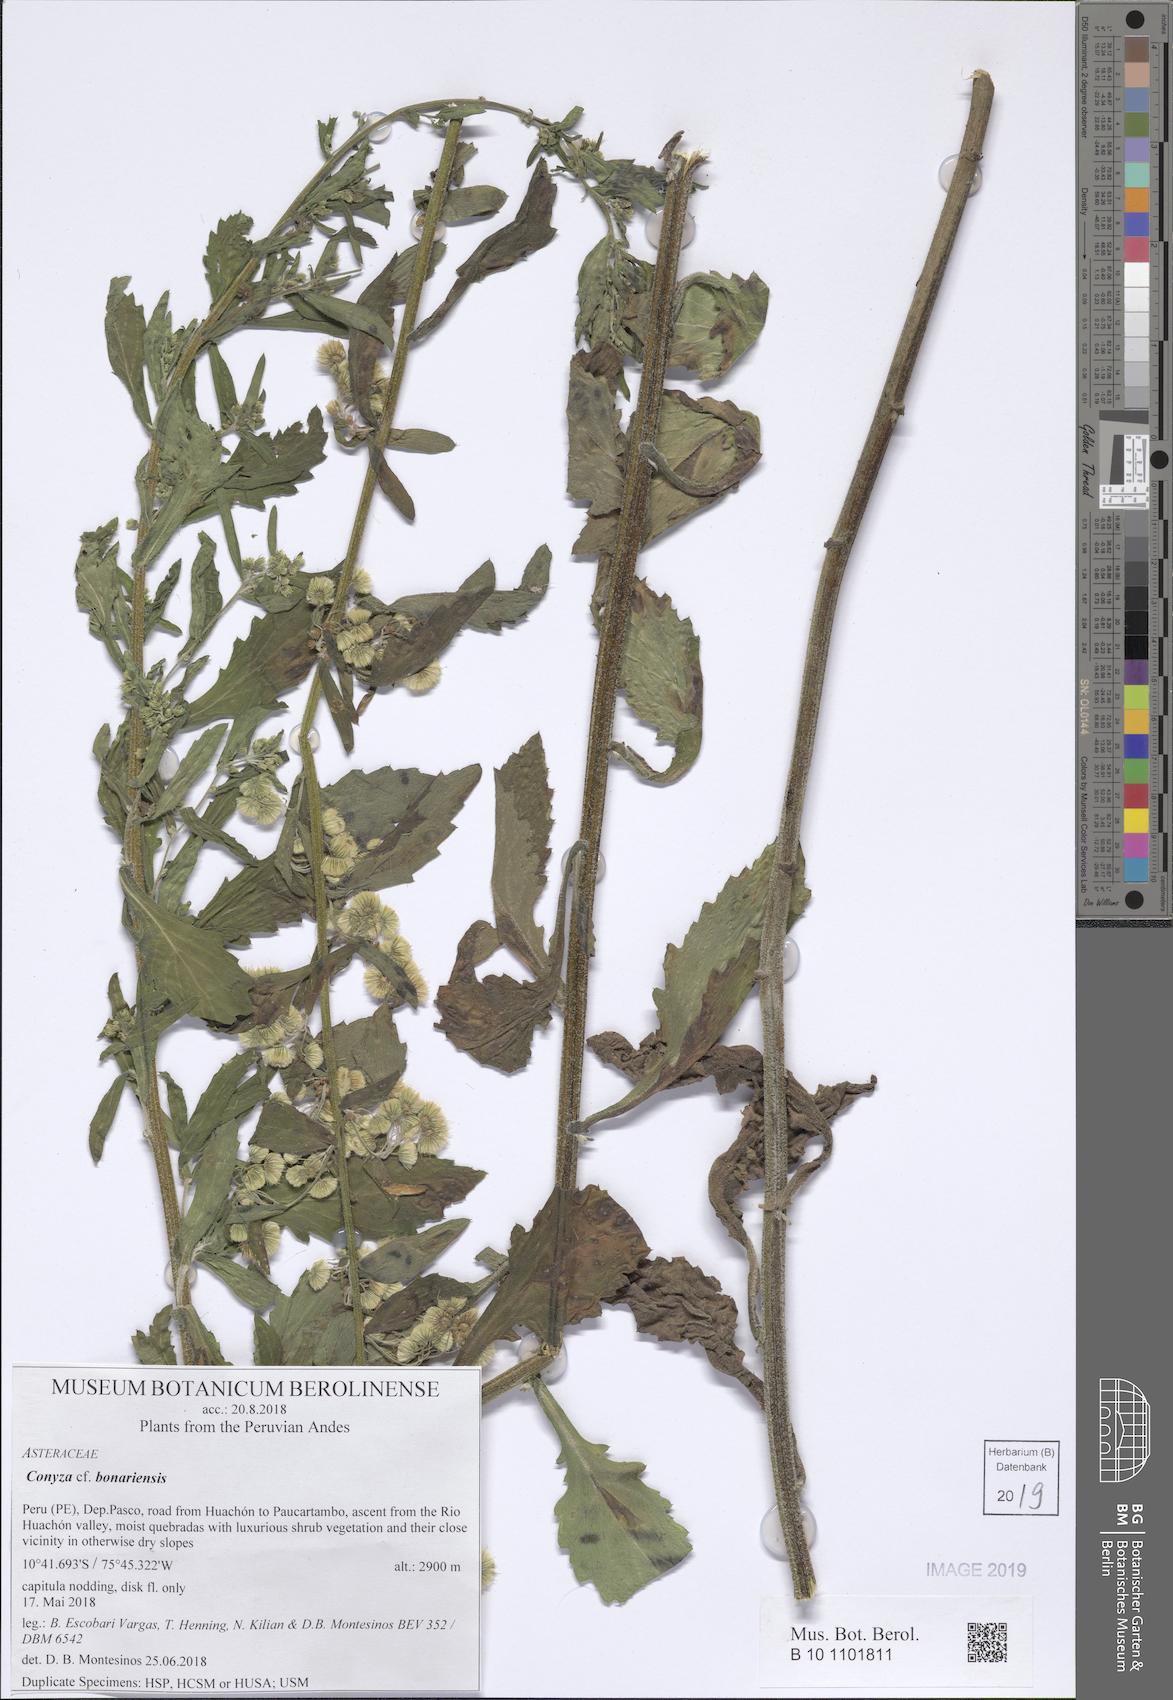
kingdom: Plantae
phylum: Tracheophyta
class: Magnoliopsida
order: Asterales
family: Asteraceae
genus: Erigeron
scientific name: Erigeron bonariensis
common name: Argentine fleabane
